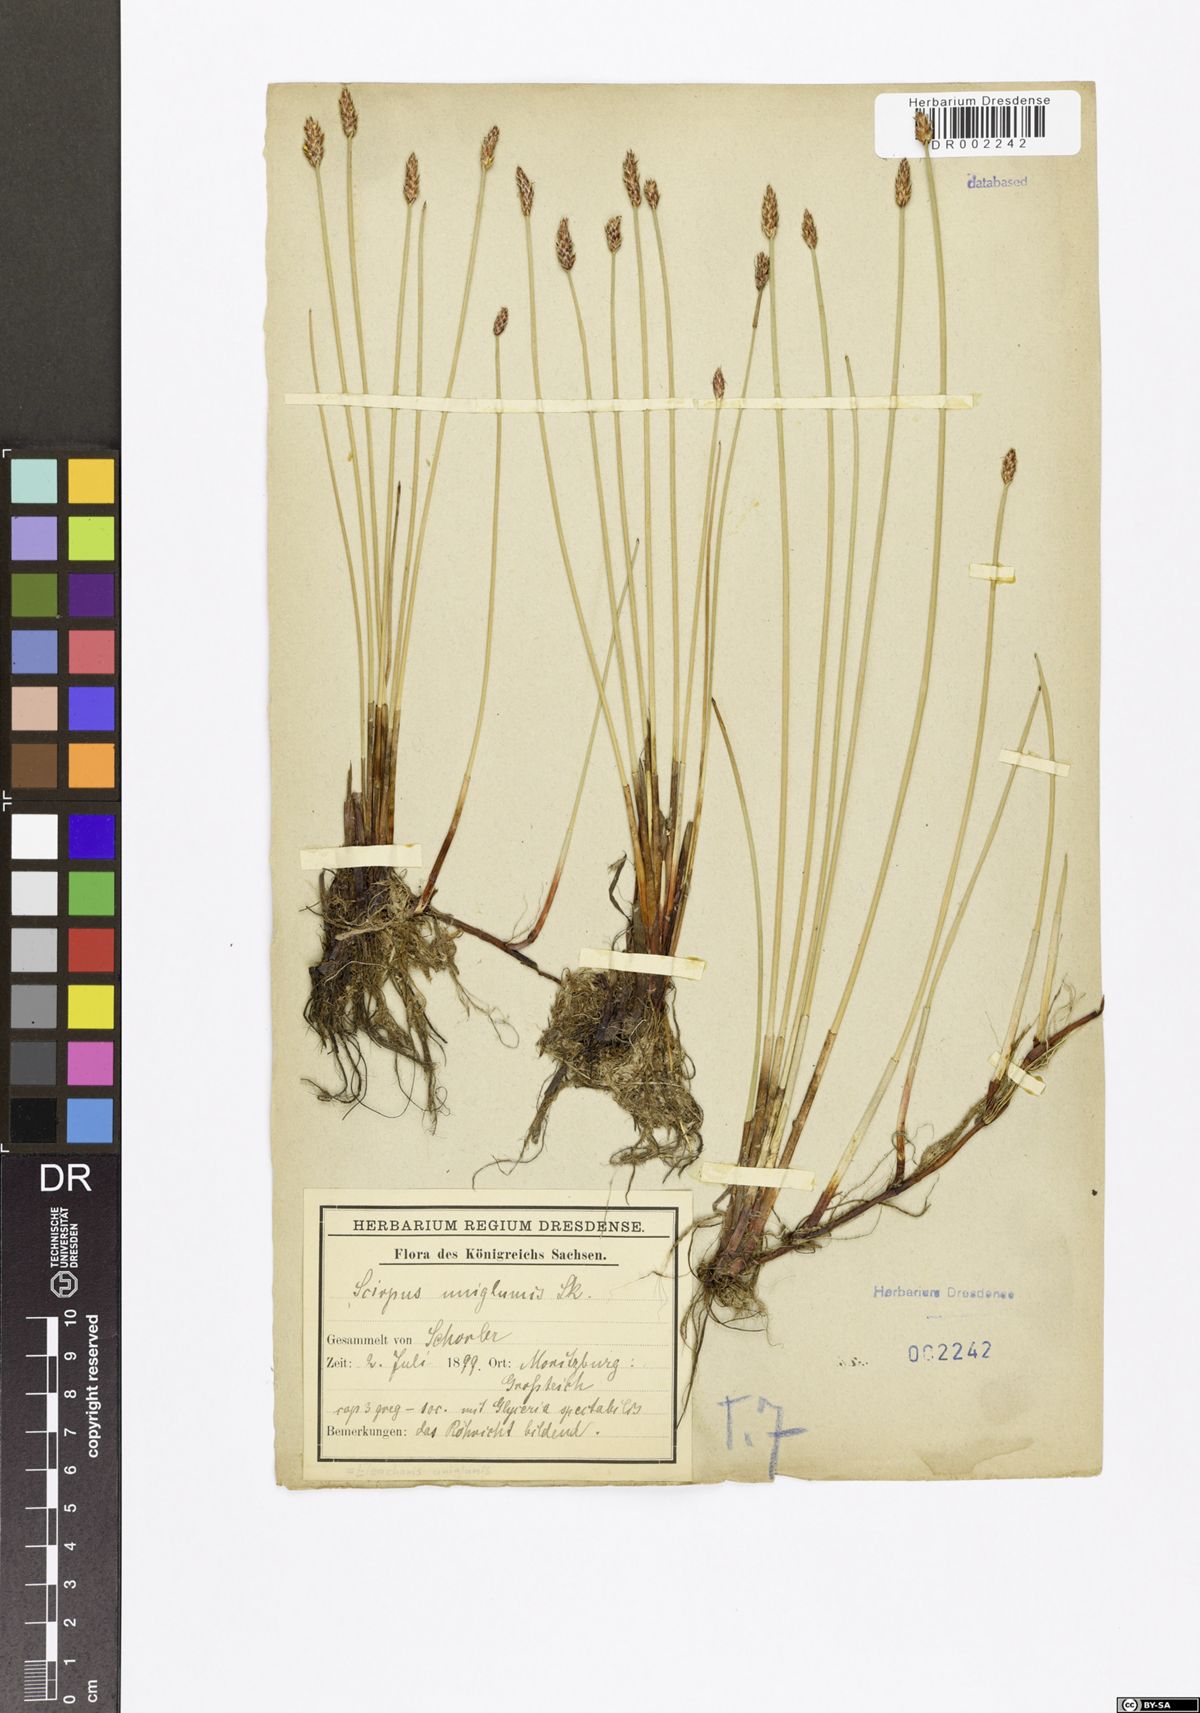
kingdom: Plantae
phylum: Tracheophyta
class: Liliopsida
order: Poales
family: Cyperaceae
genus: Eleocharis
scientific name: Eleocharis uniglumis
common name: Slender spike-rush
